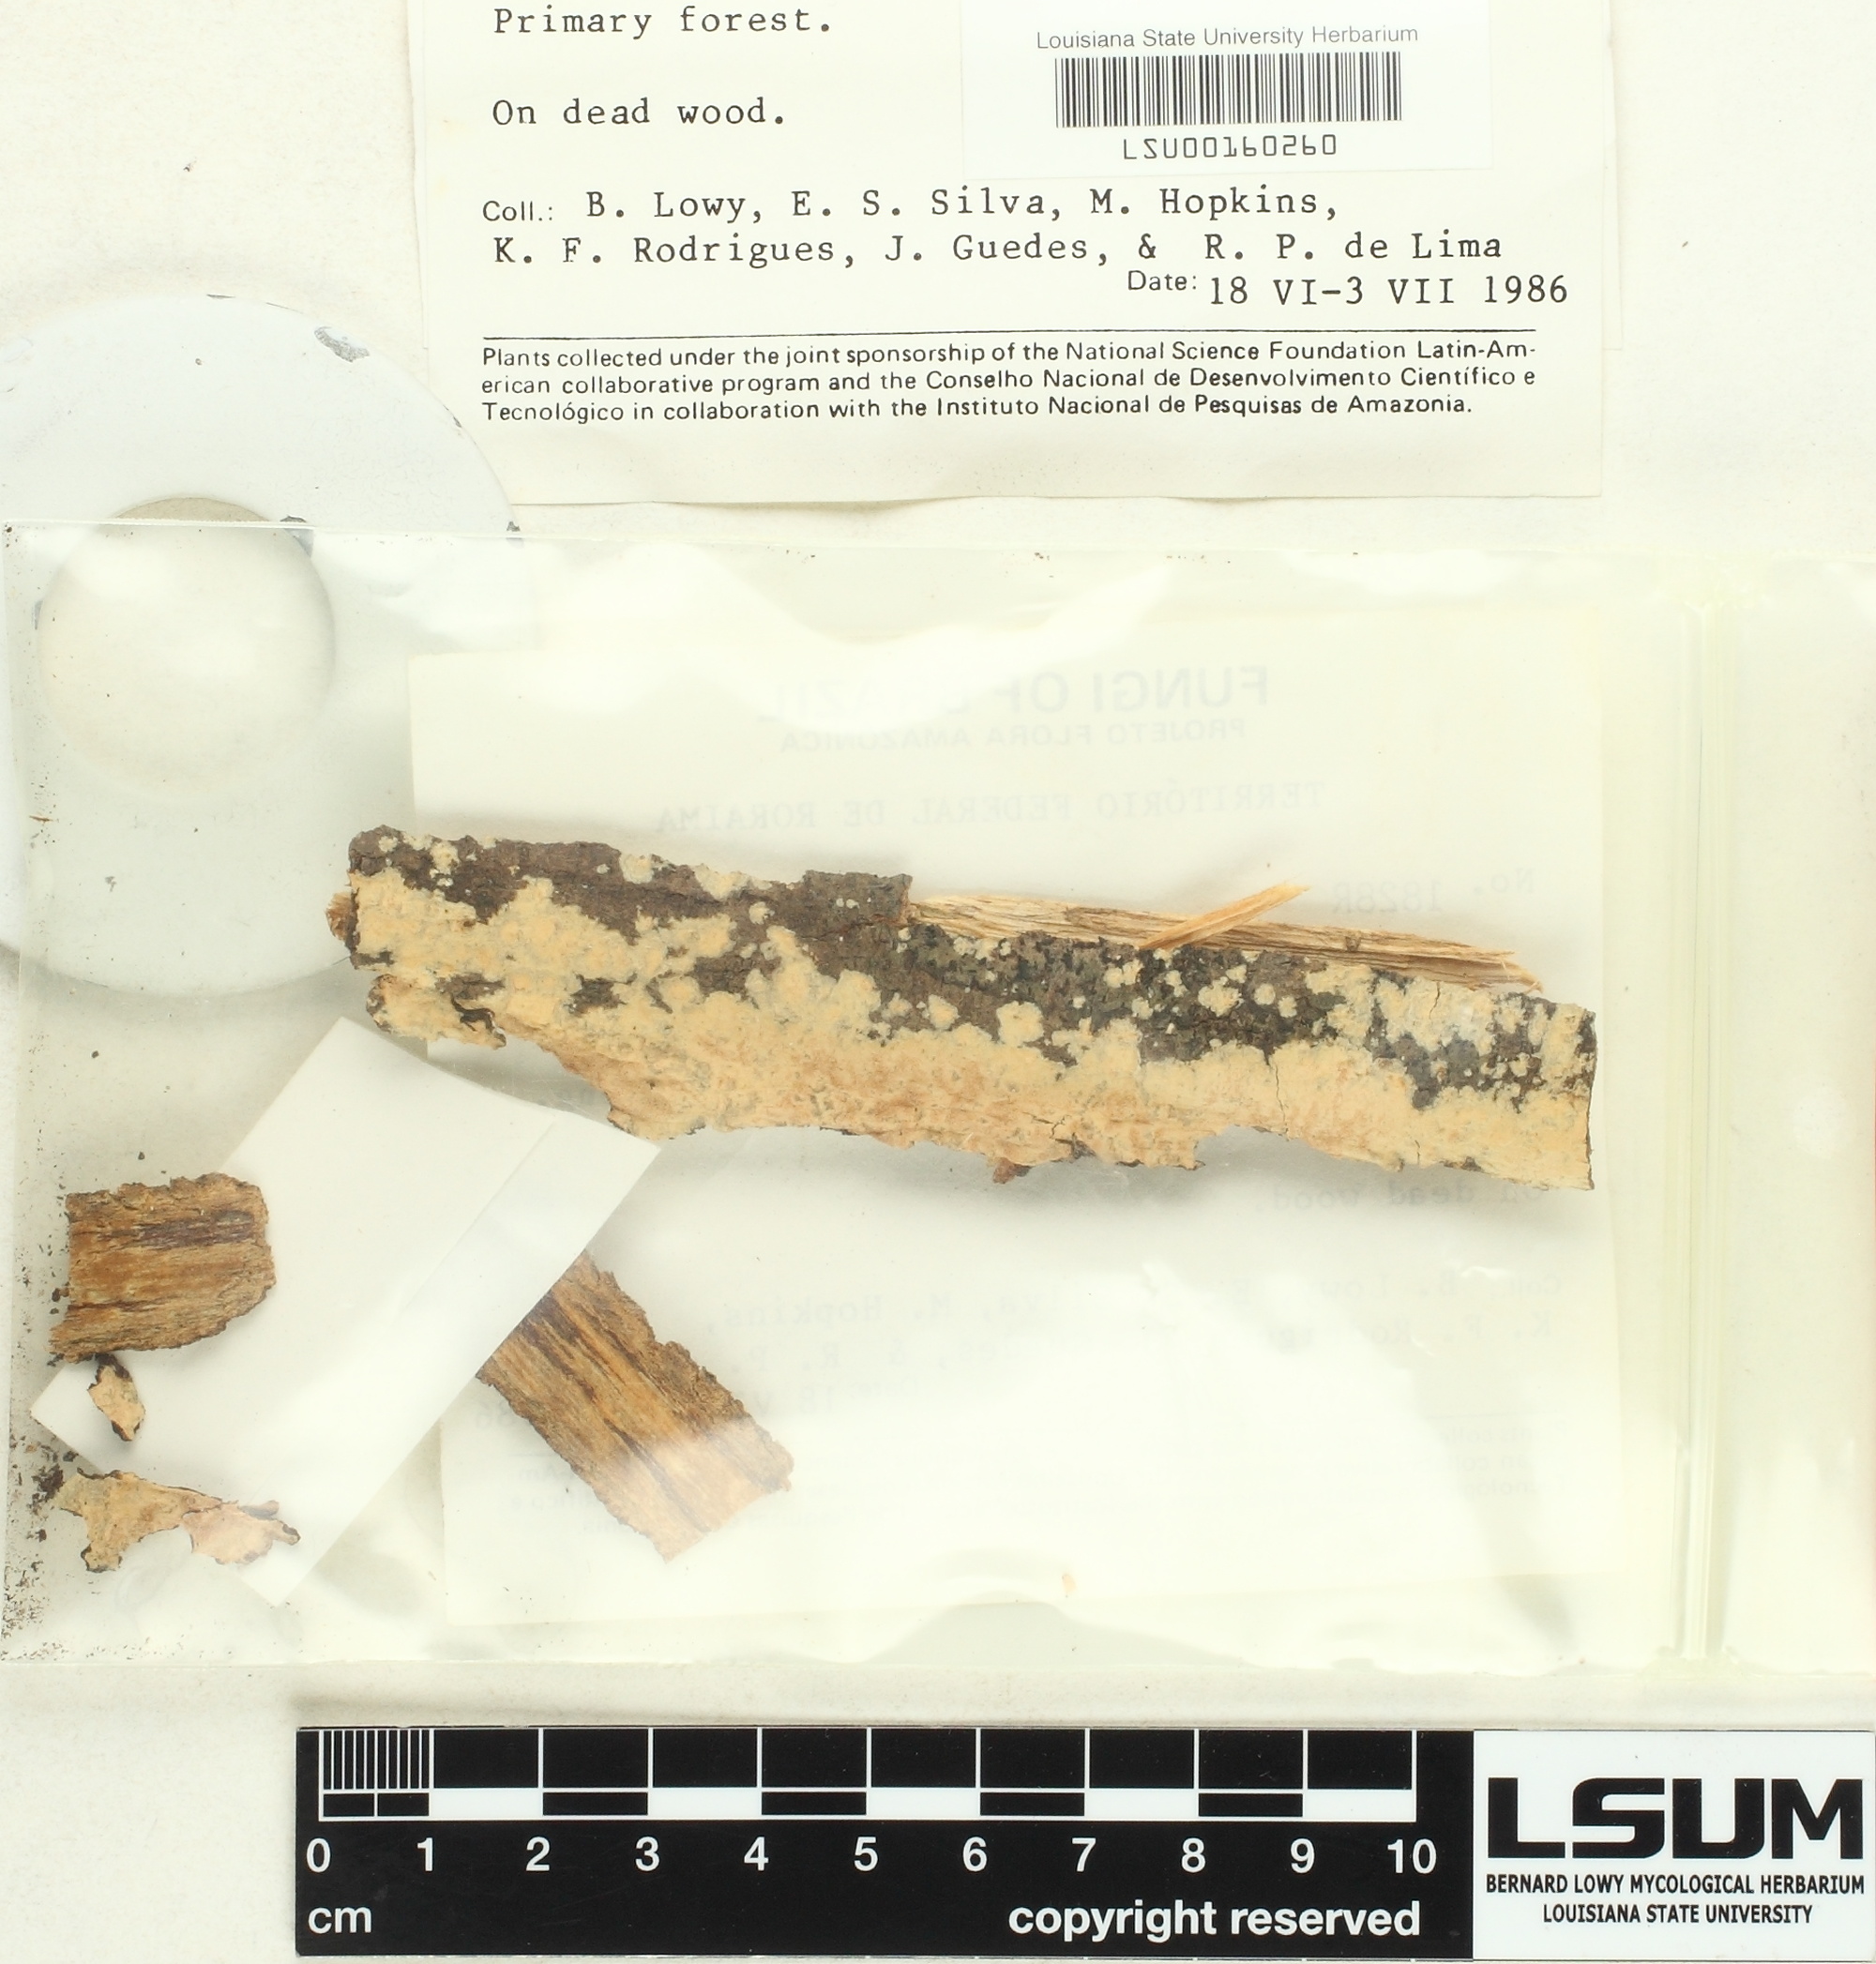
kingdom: Fungi
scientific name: Fungi
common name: Fungi
